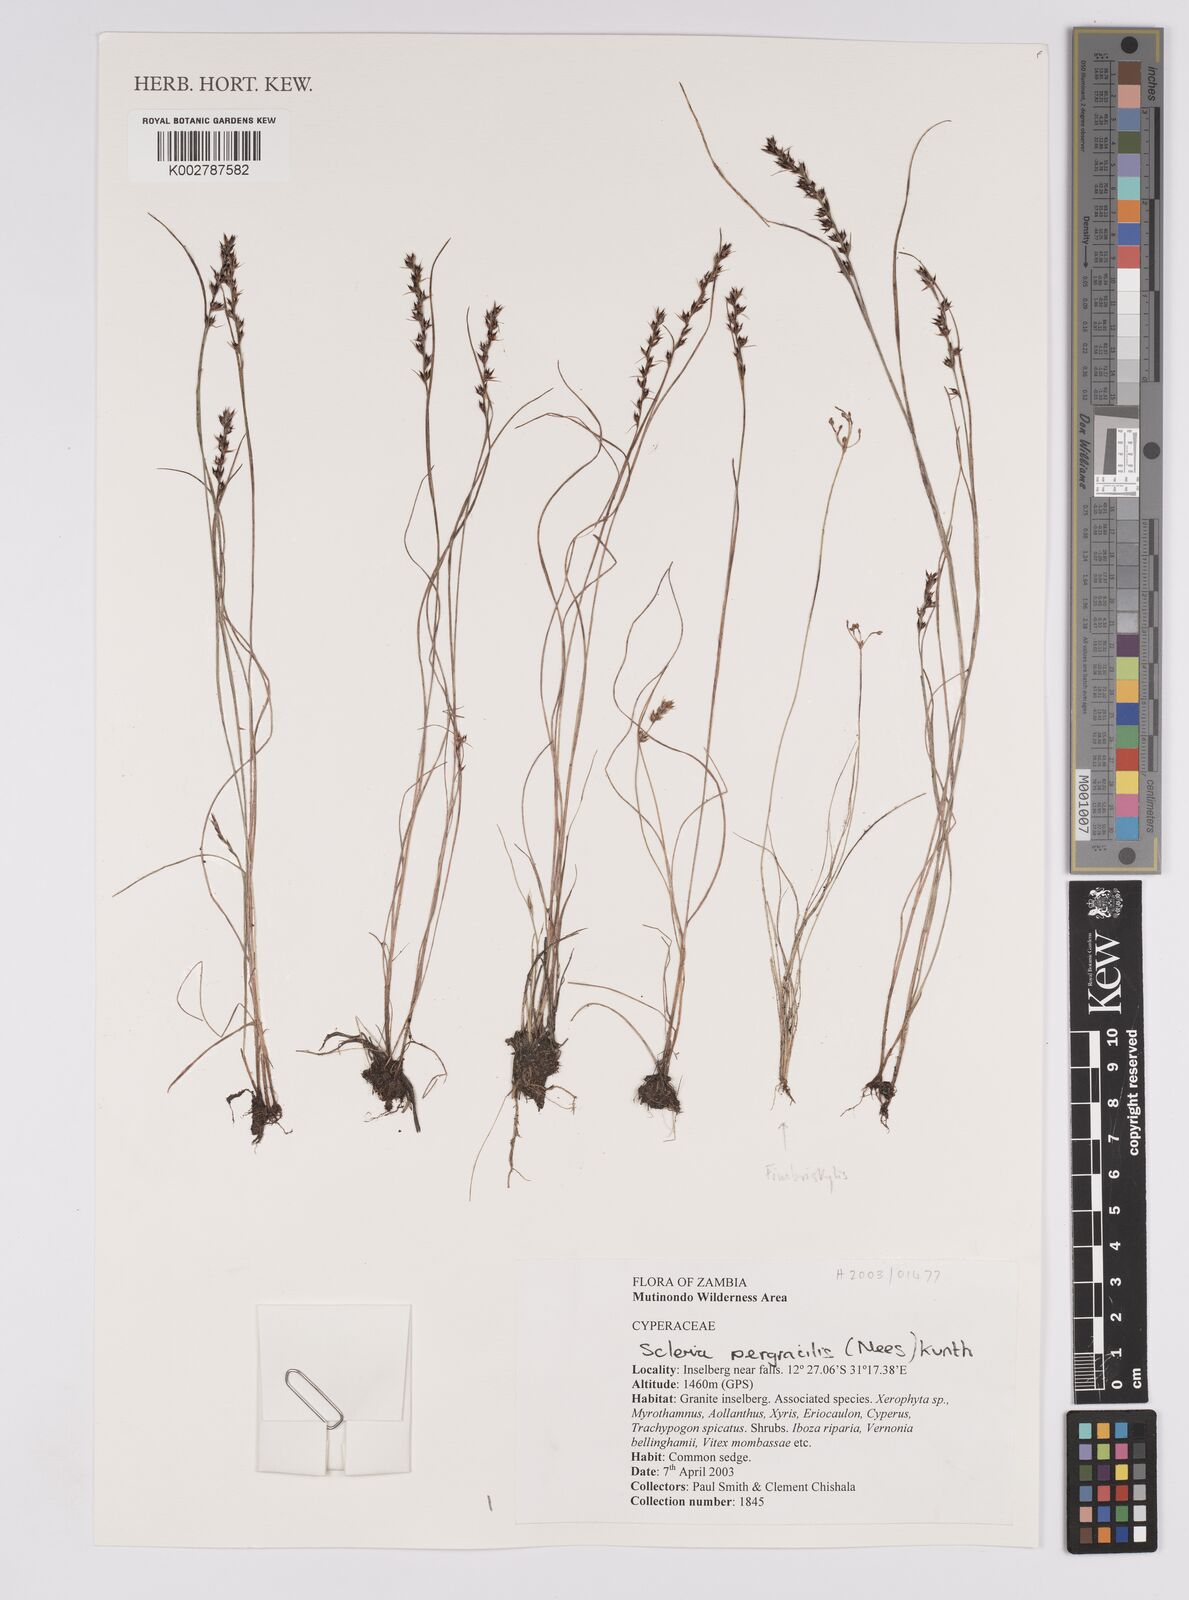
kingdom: Plantae
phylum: Tracheophyta
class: Liliopsida
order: Poales
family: Cyperaceae
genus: Scleria
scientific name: Scleria pergracilis
